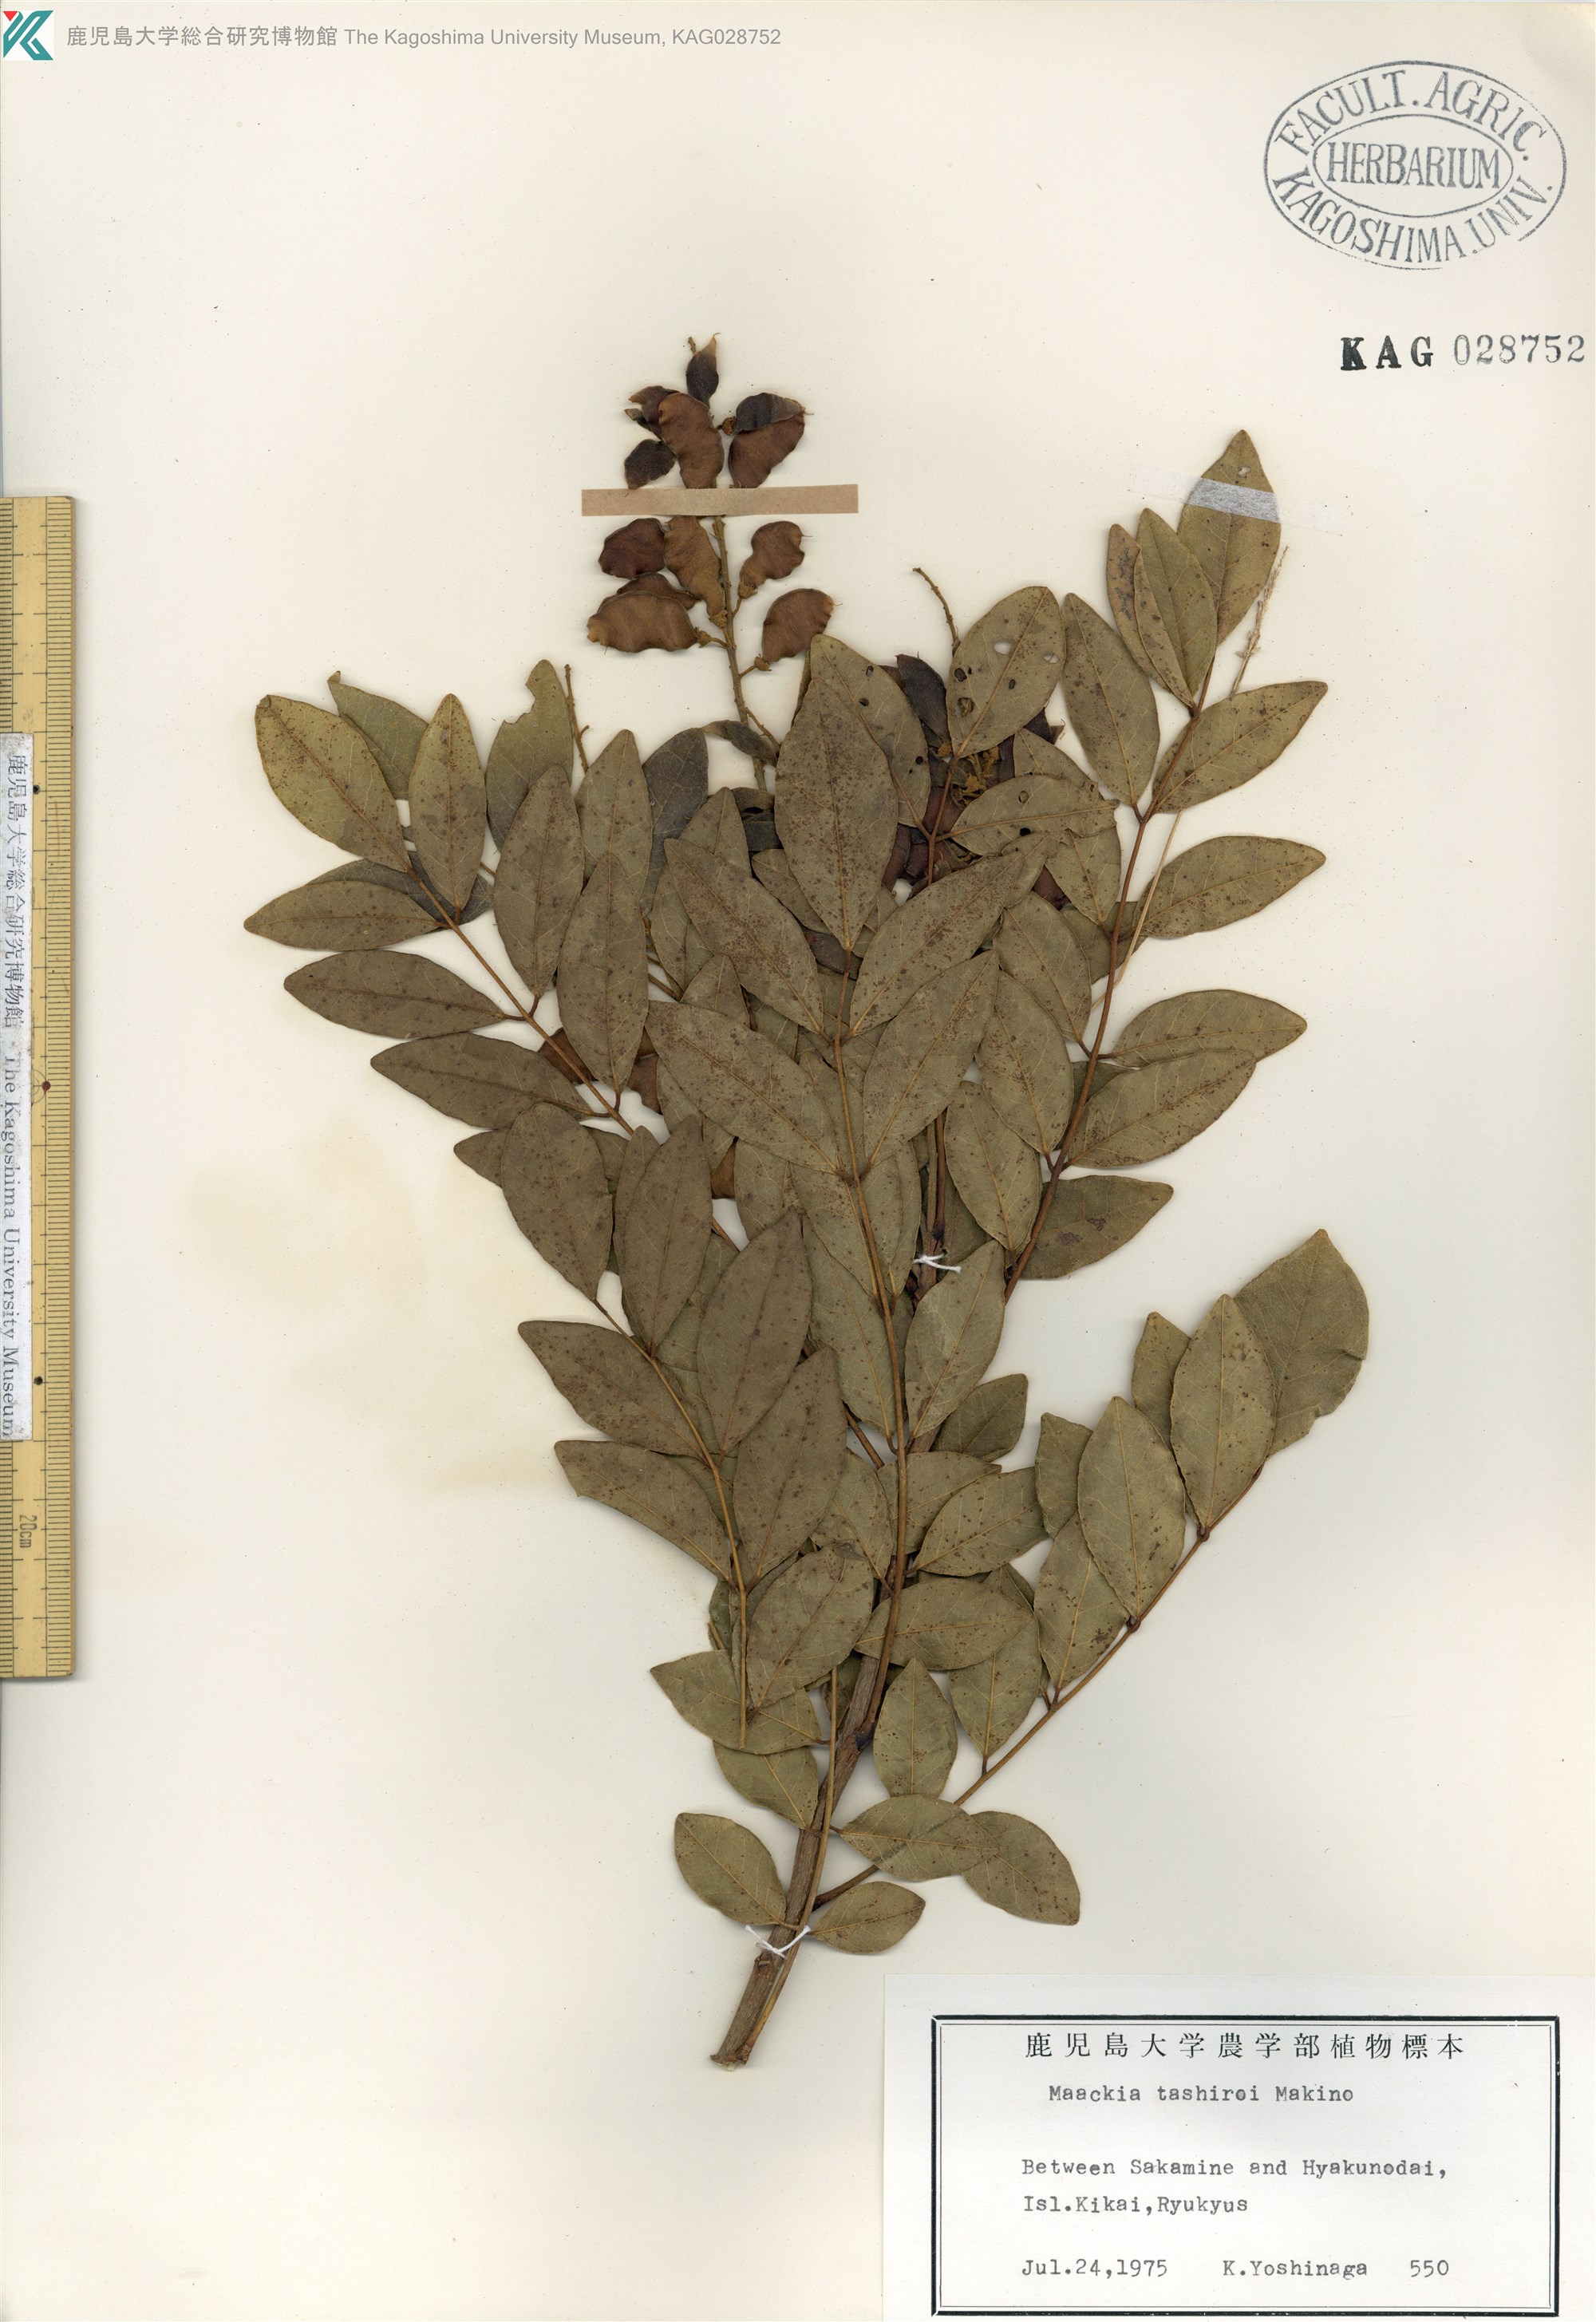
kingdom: Plantae
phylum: Tracheophyta
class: Magnoliopsida
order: Fabales
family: Fabaceae
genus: Maackia
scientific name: Maackia tashiroi
